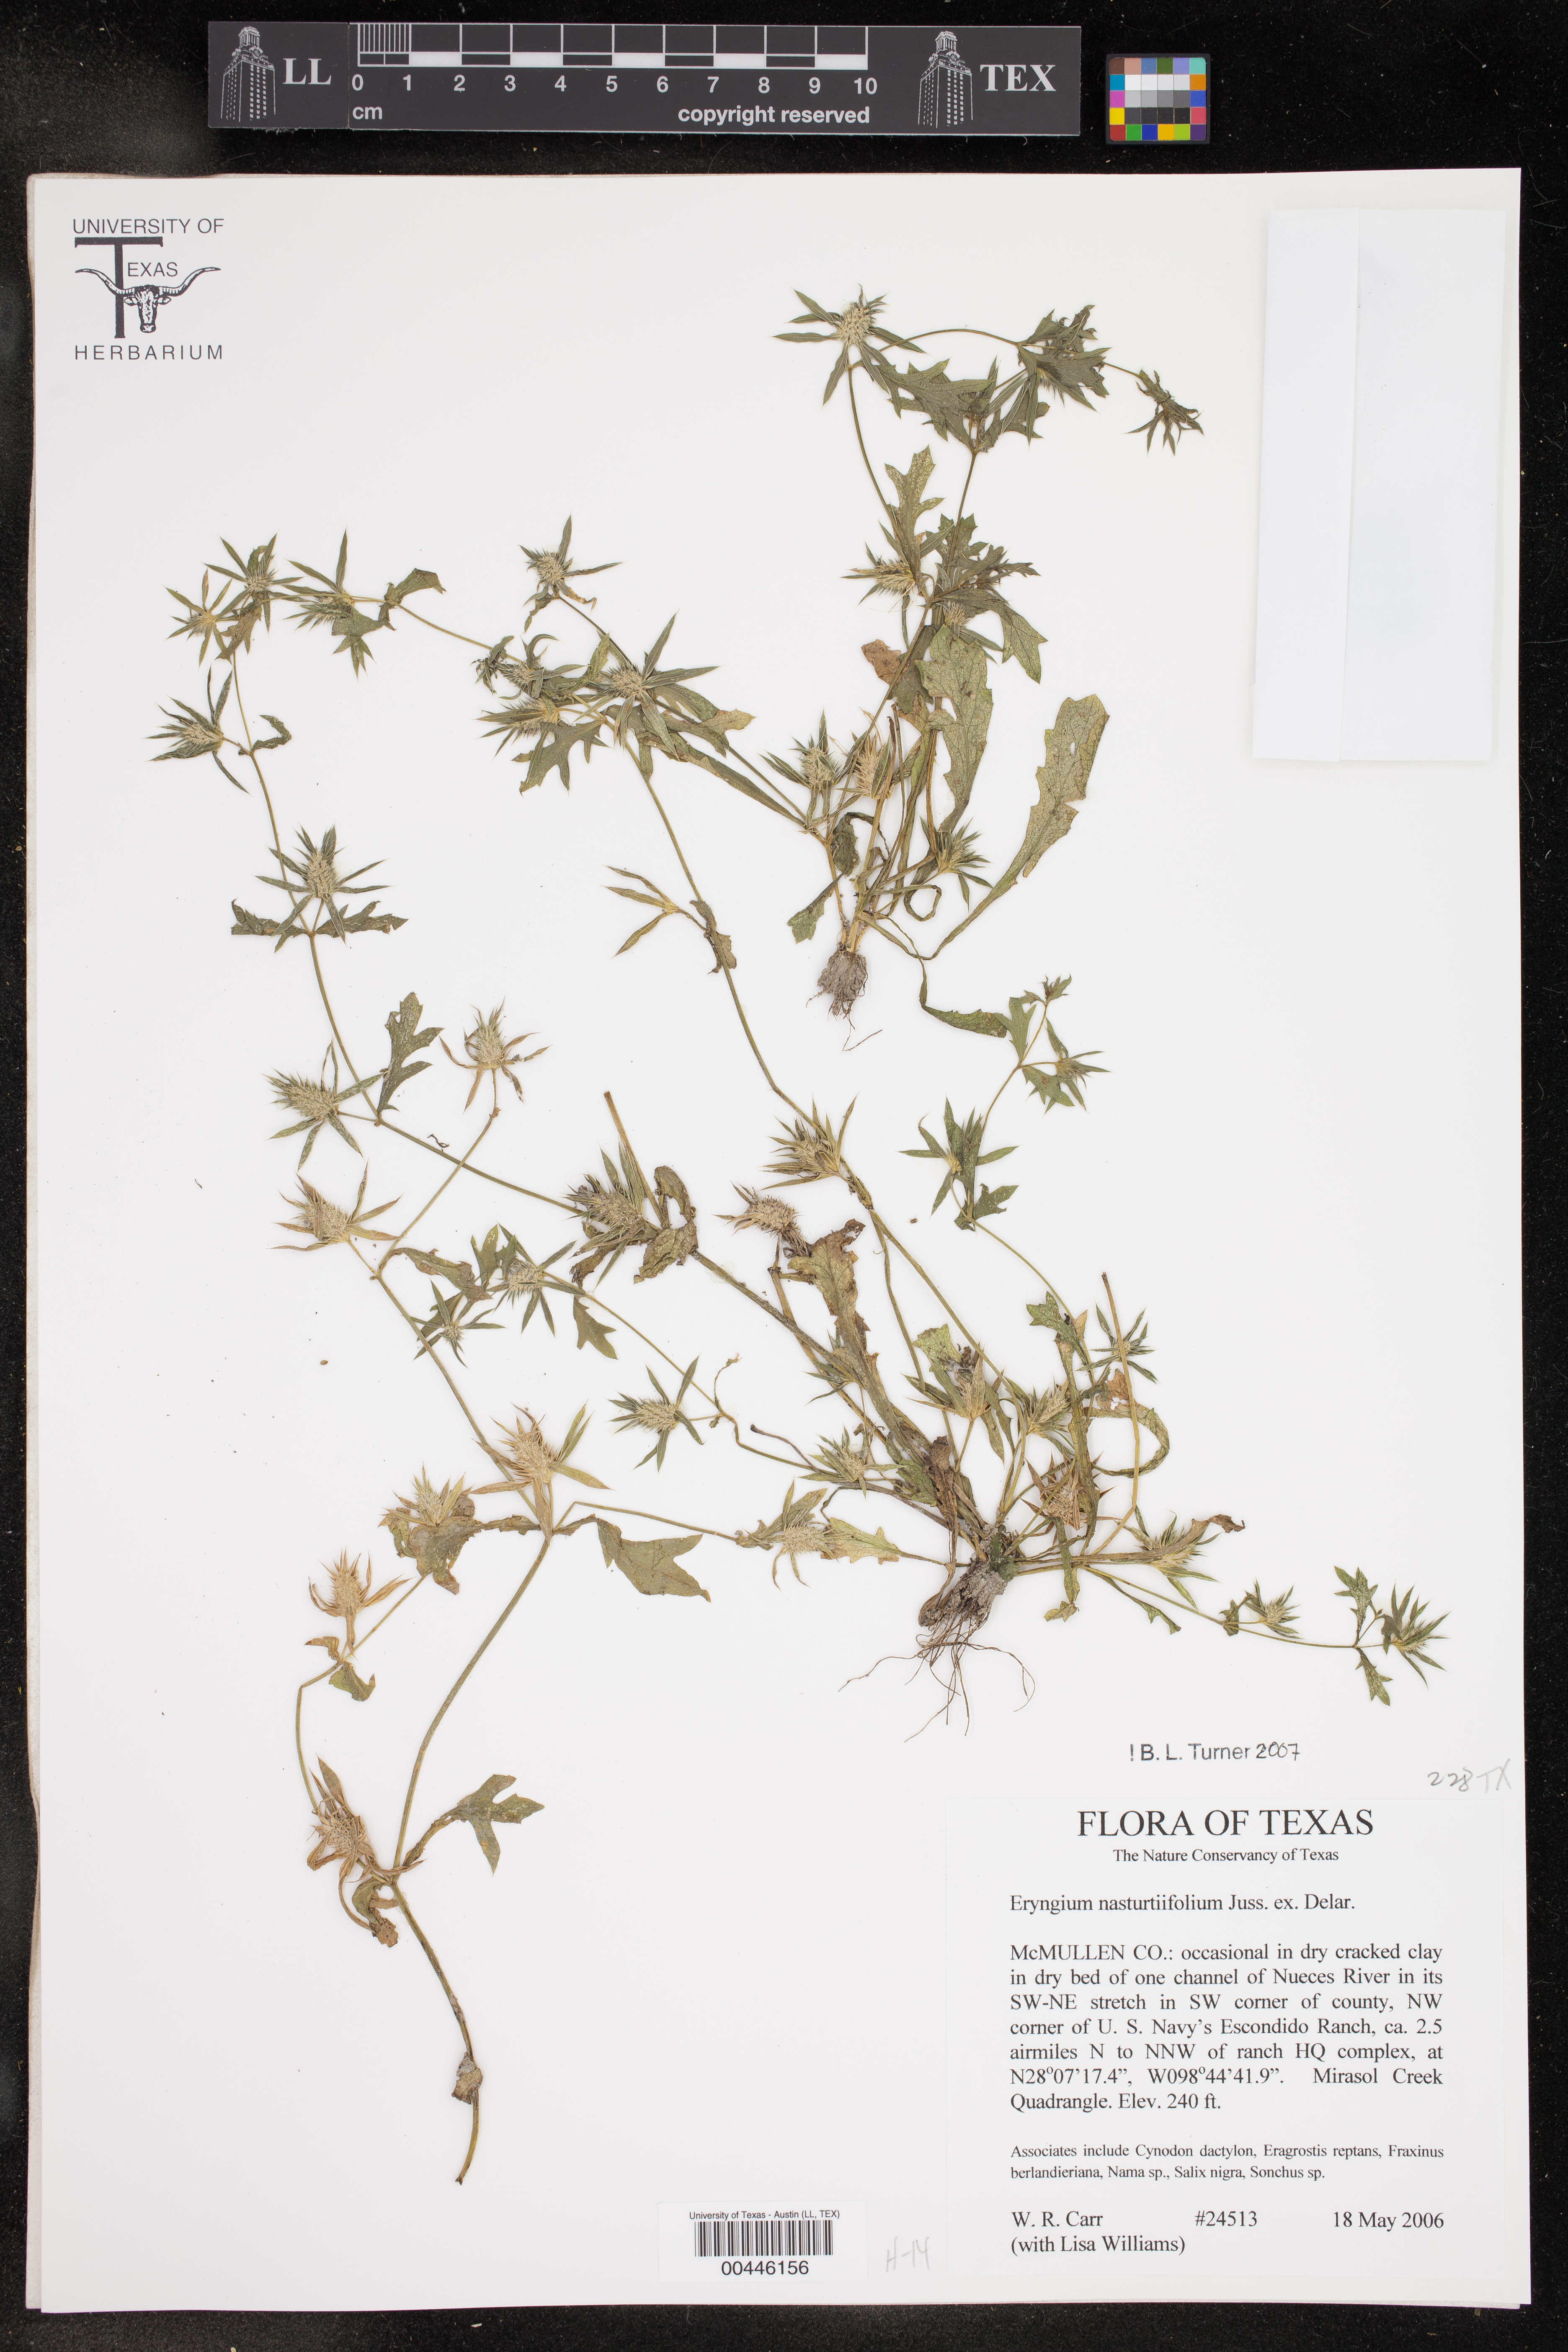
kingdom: Plantae
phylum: Tracheophyta
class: Magnoliopsida
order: Apiales
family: Apiaceae
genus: Eryngium
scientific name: Eryngium nasturtiifolium
